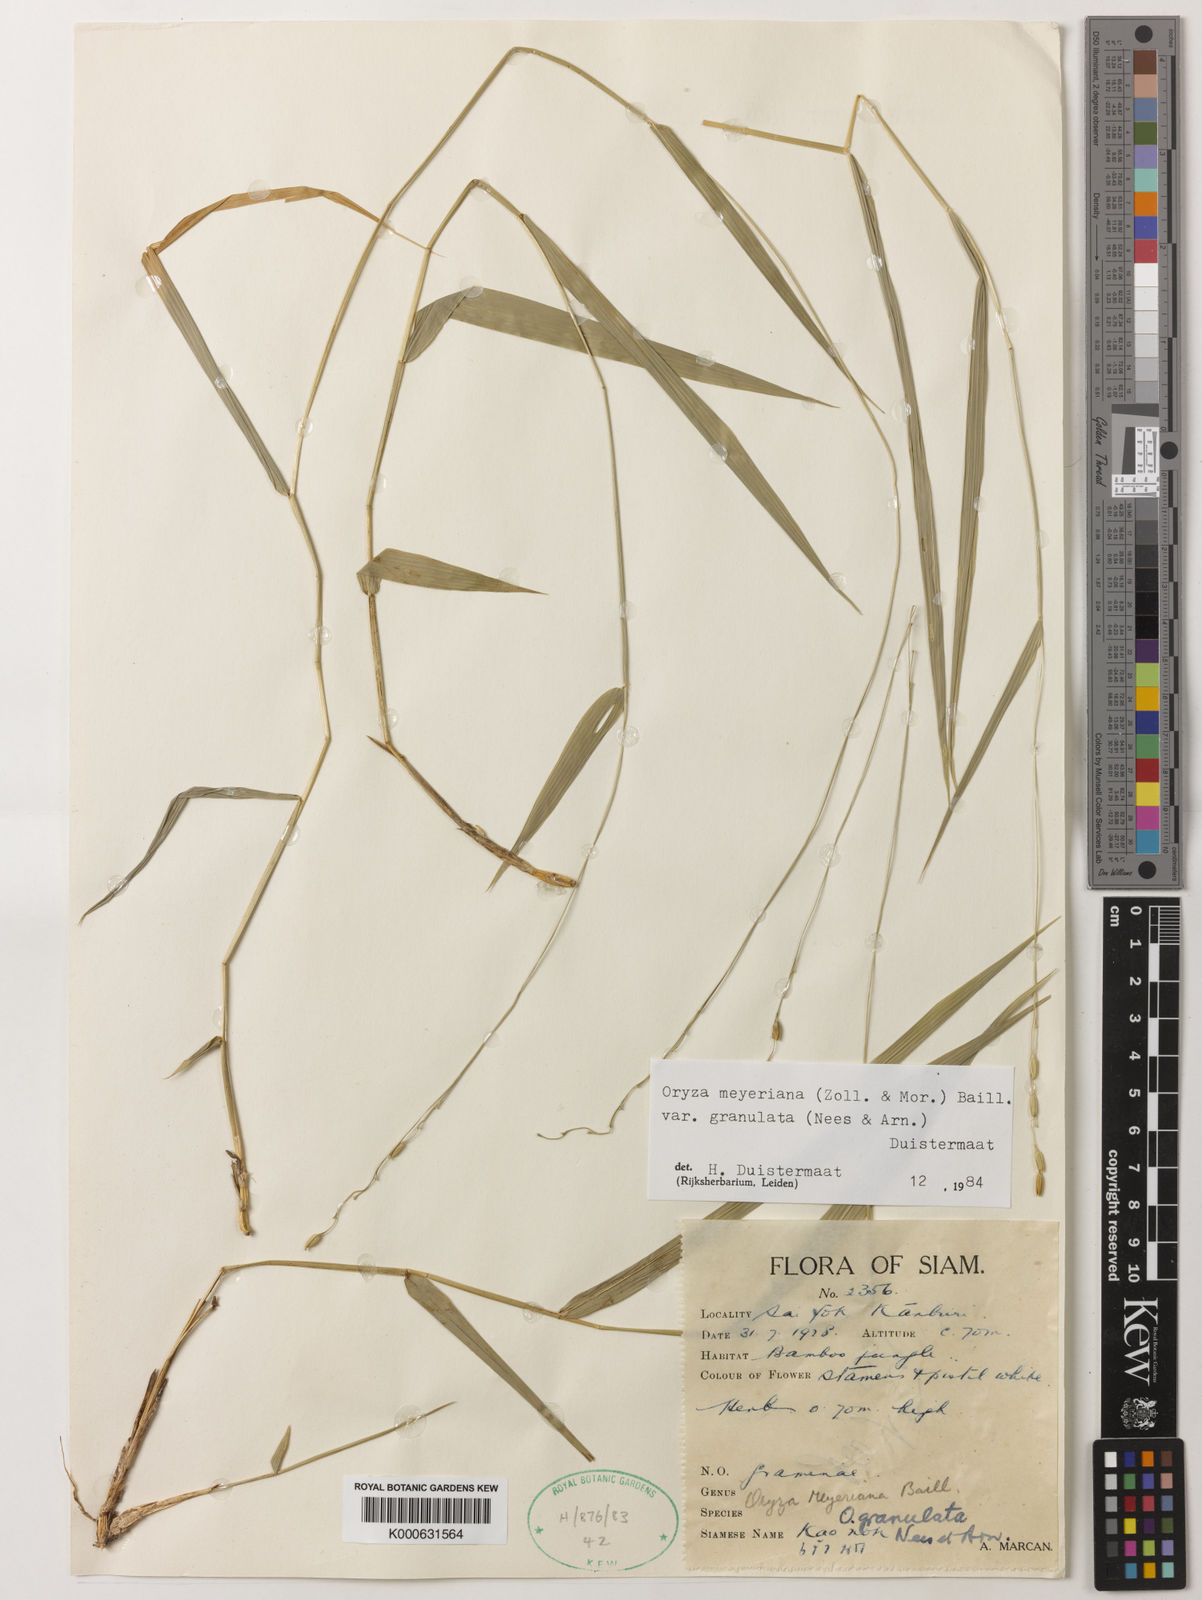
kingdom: Plantae
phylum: Tracheophyta
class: Liliopsida
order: Poales
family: Poaceae
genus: Oryza
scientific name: Oryza meyeriana
